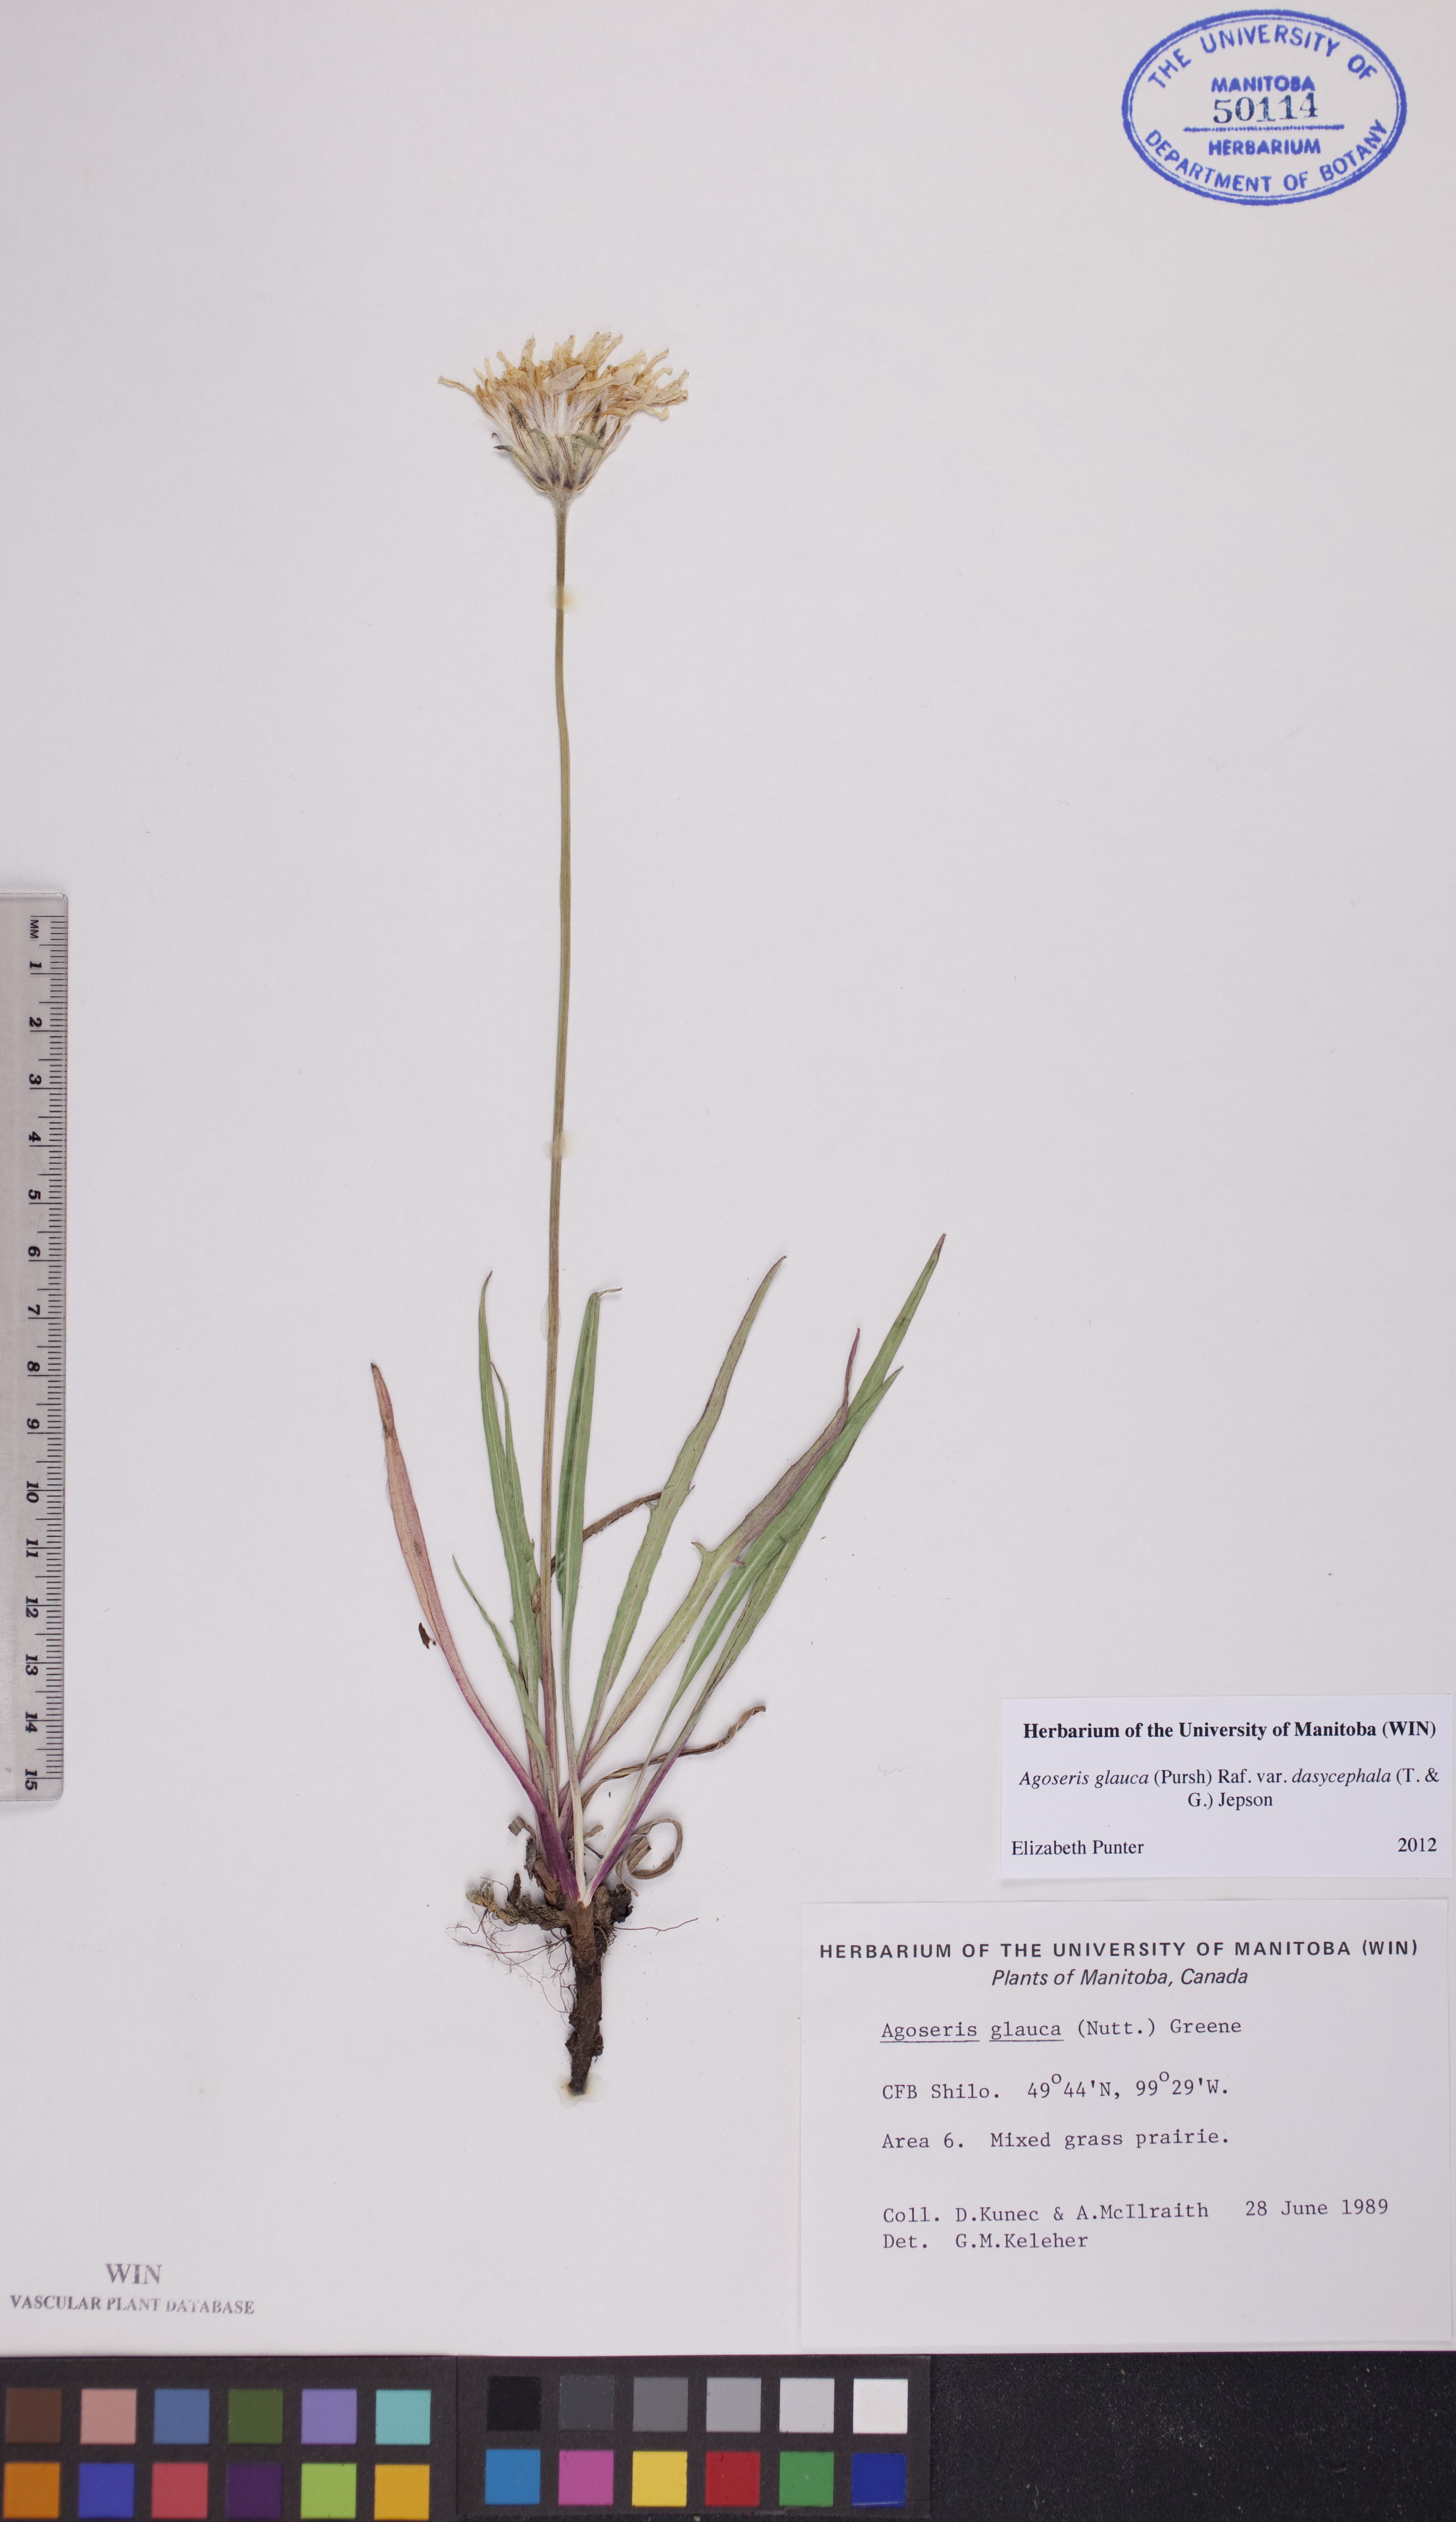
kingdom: Plantae
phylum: Tracheophyta
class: Magnoliopsida
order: Asterales
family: Asteraceae
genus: Agoseris
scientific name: Agoseris glauca
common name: Prairie agoseris
